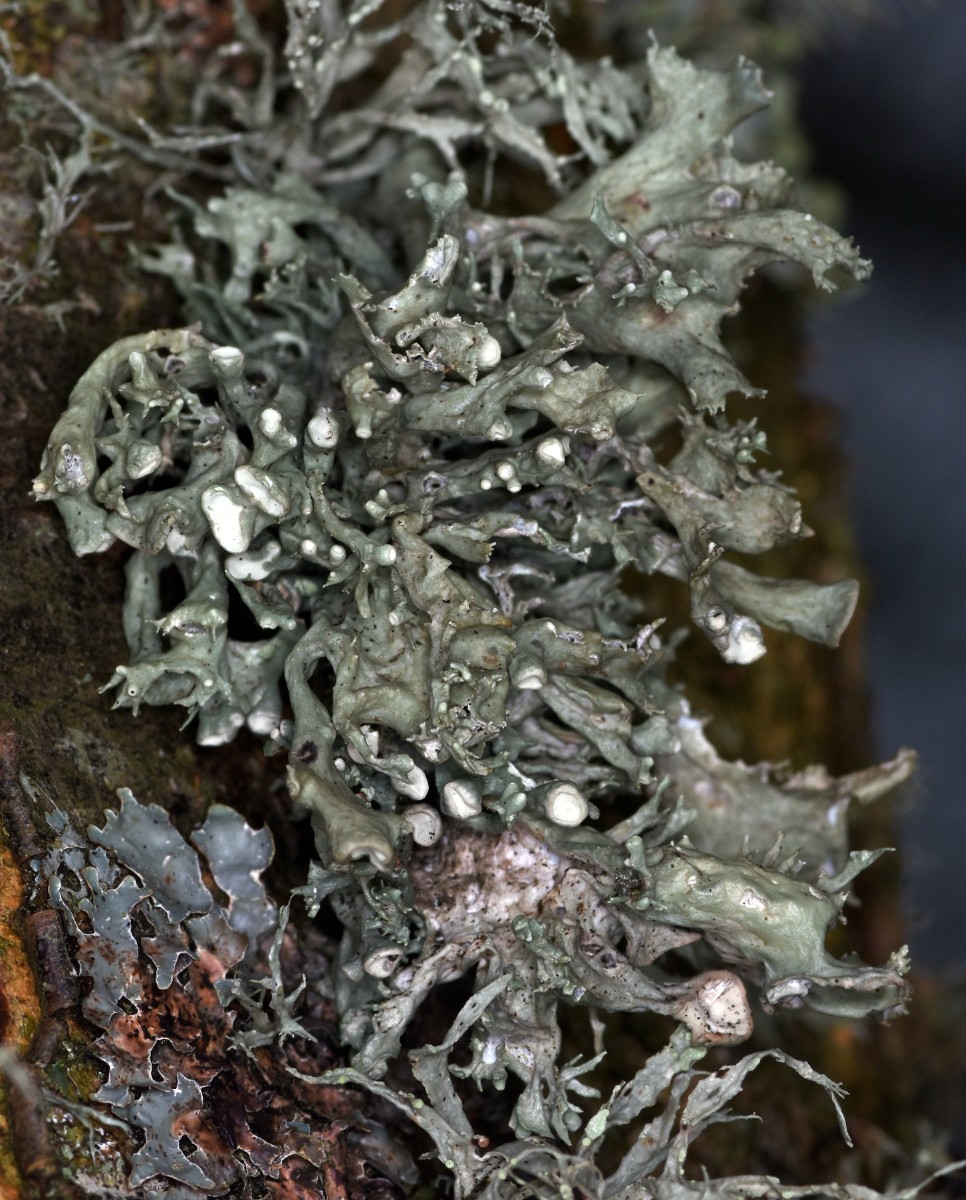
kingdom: Fungi
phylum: Ascomycota
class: Lecanoromycetes
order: Lecanorales
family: Ramalinaceae
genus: Ramalina
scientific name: Ramalina fastigiata
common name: tue-grenlav
